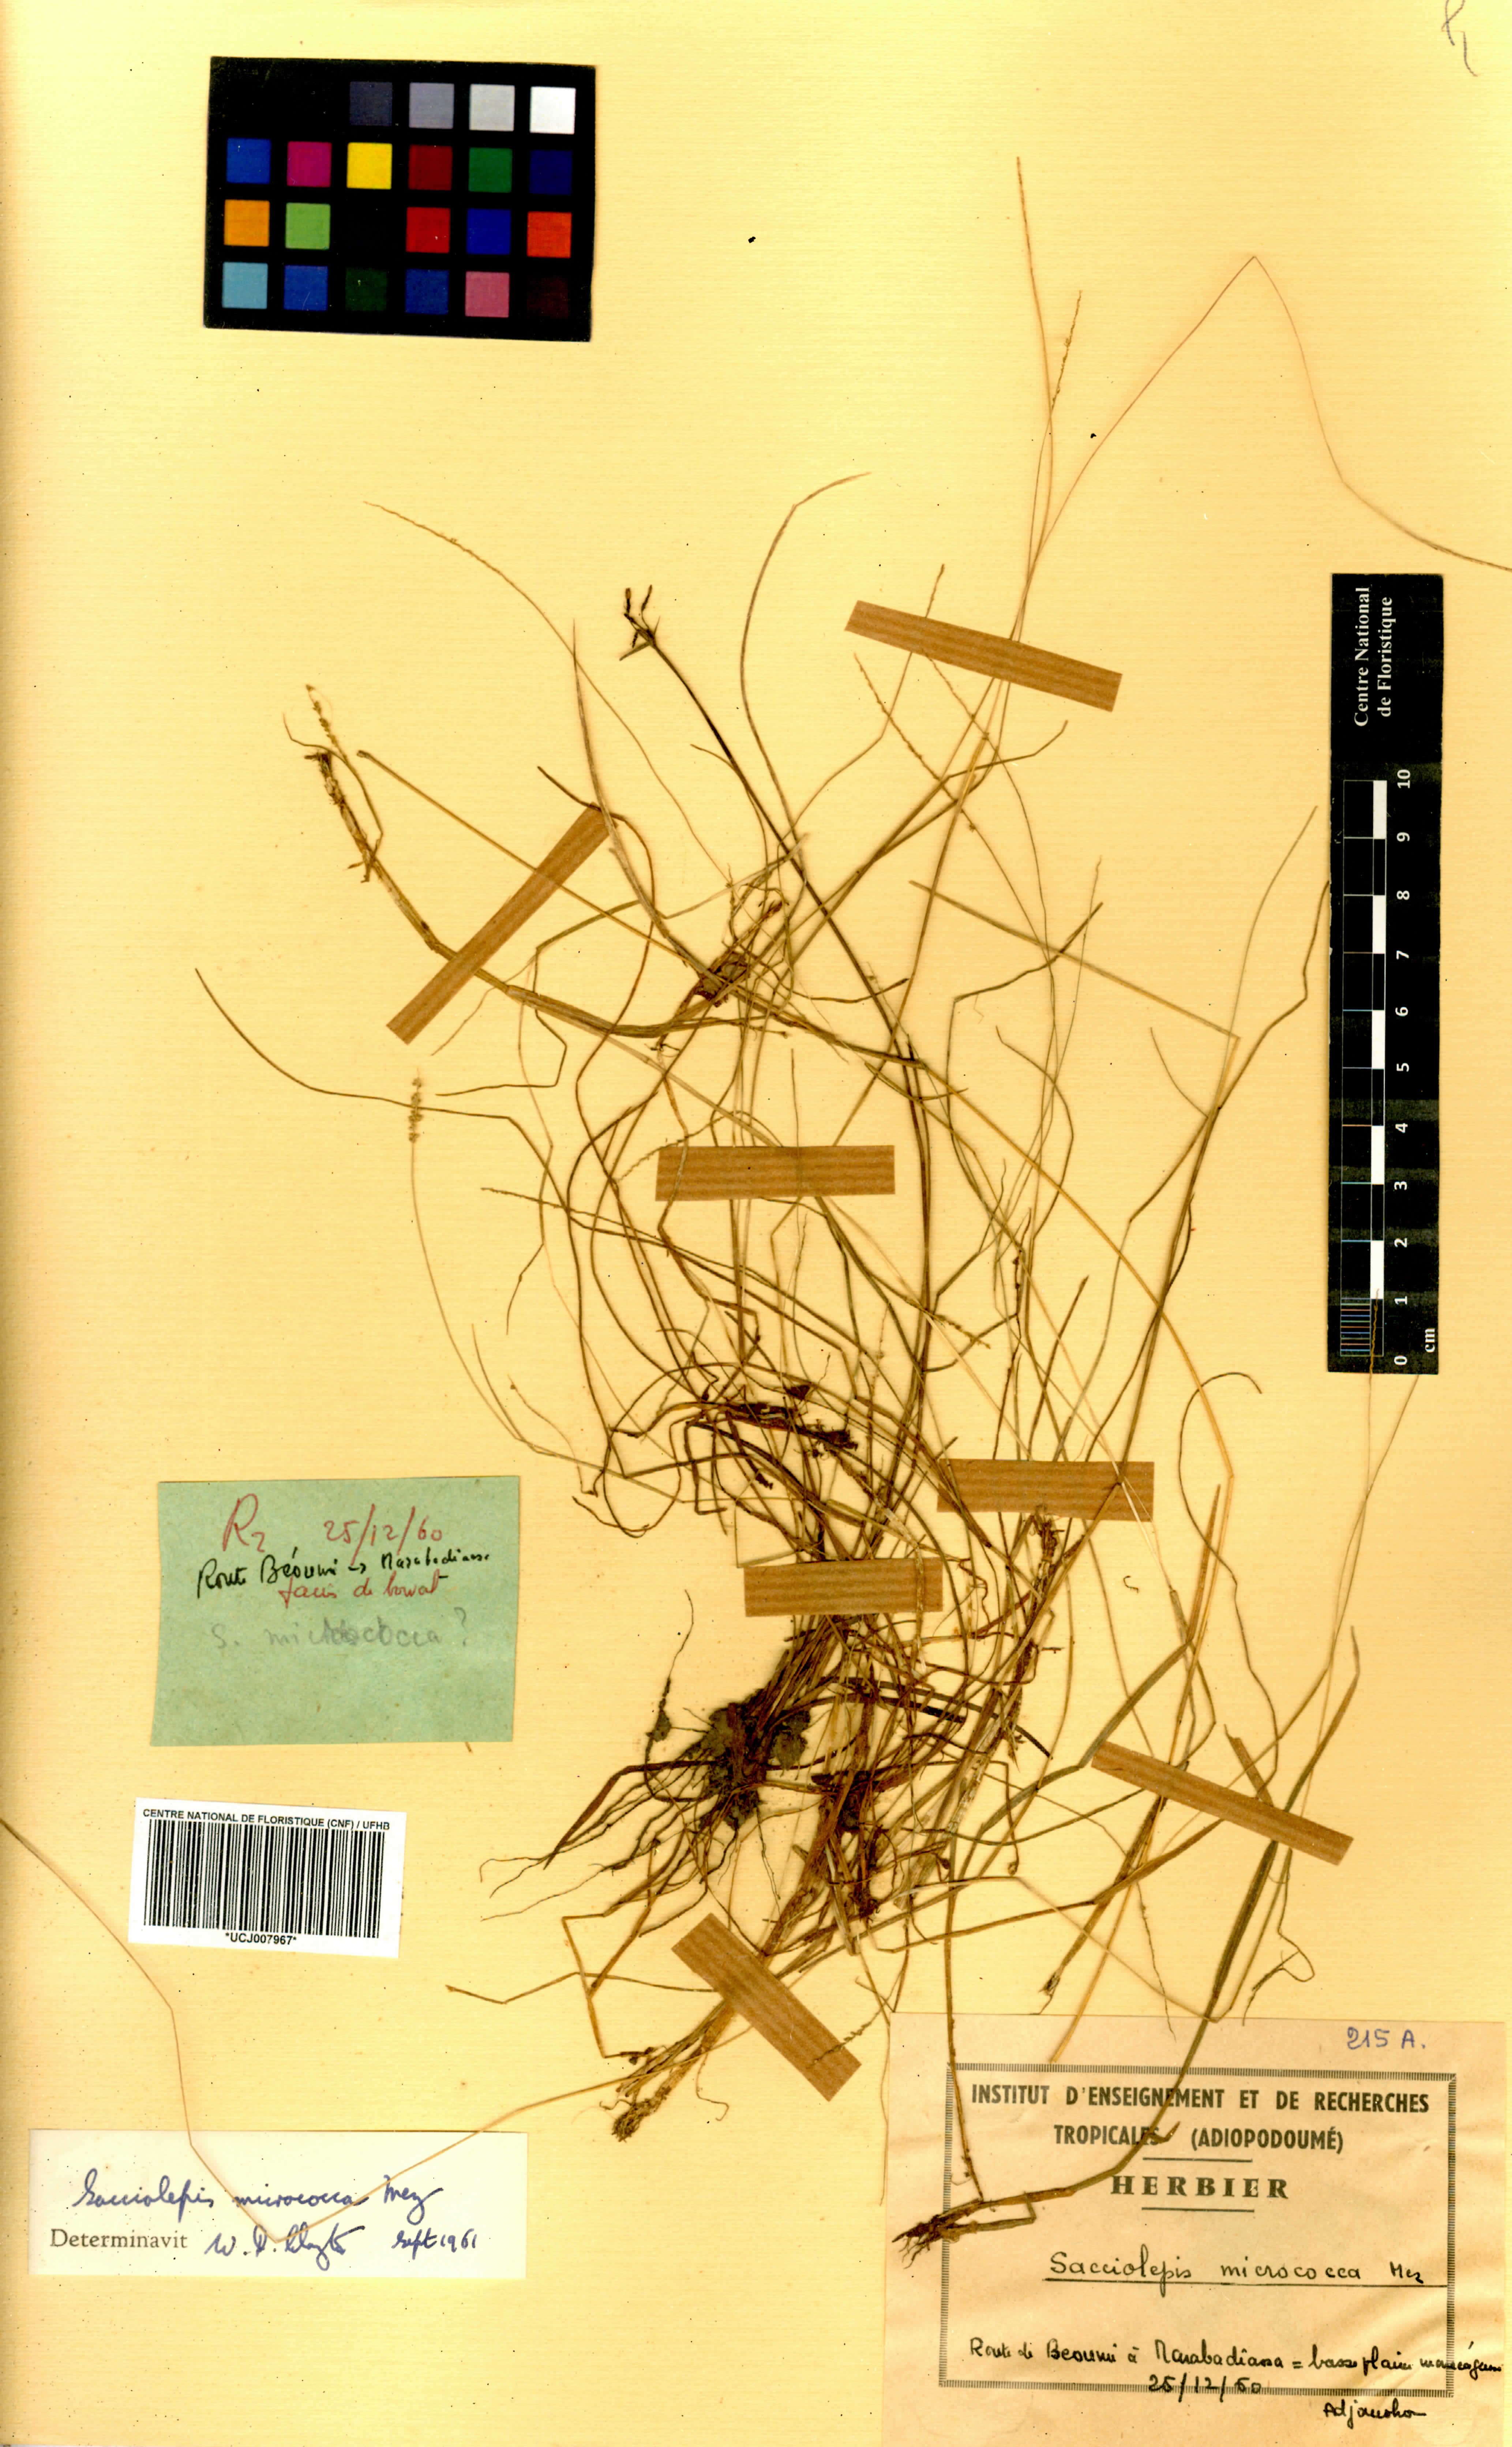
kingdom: Plantae
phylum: Tracheophyta
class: Liliopsida
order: Poales
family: Poaceae
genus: Sacciolepis
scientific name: Sacciolepis micrococca
